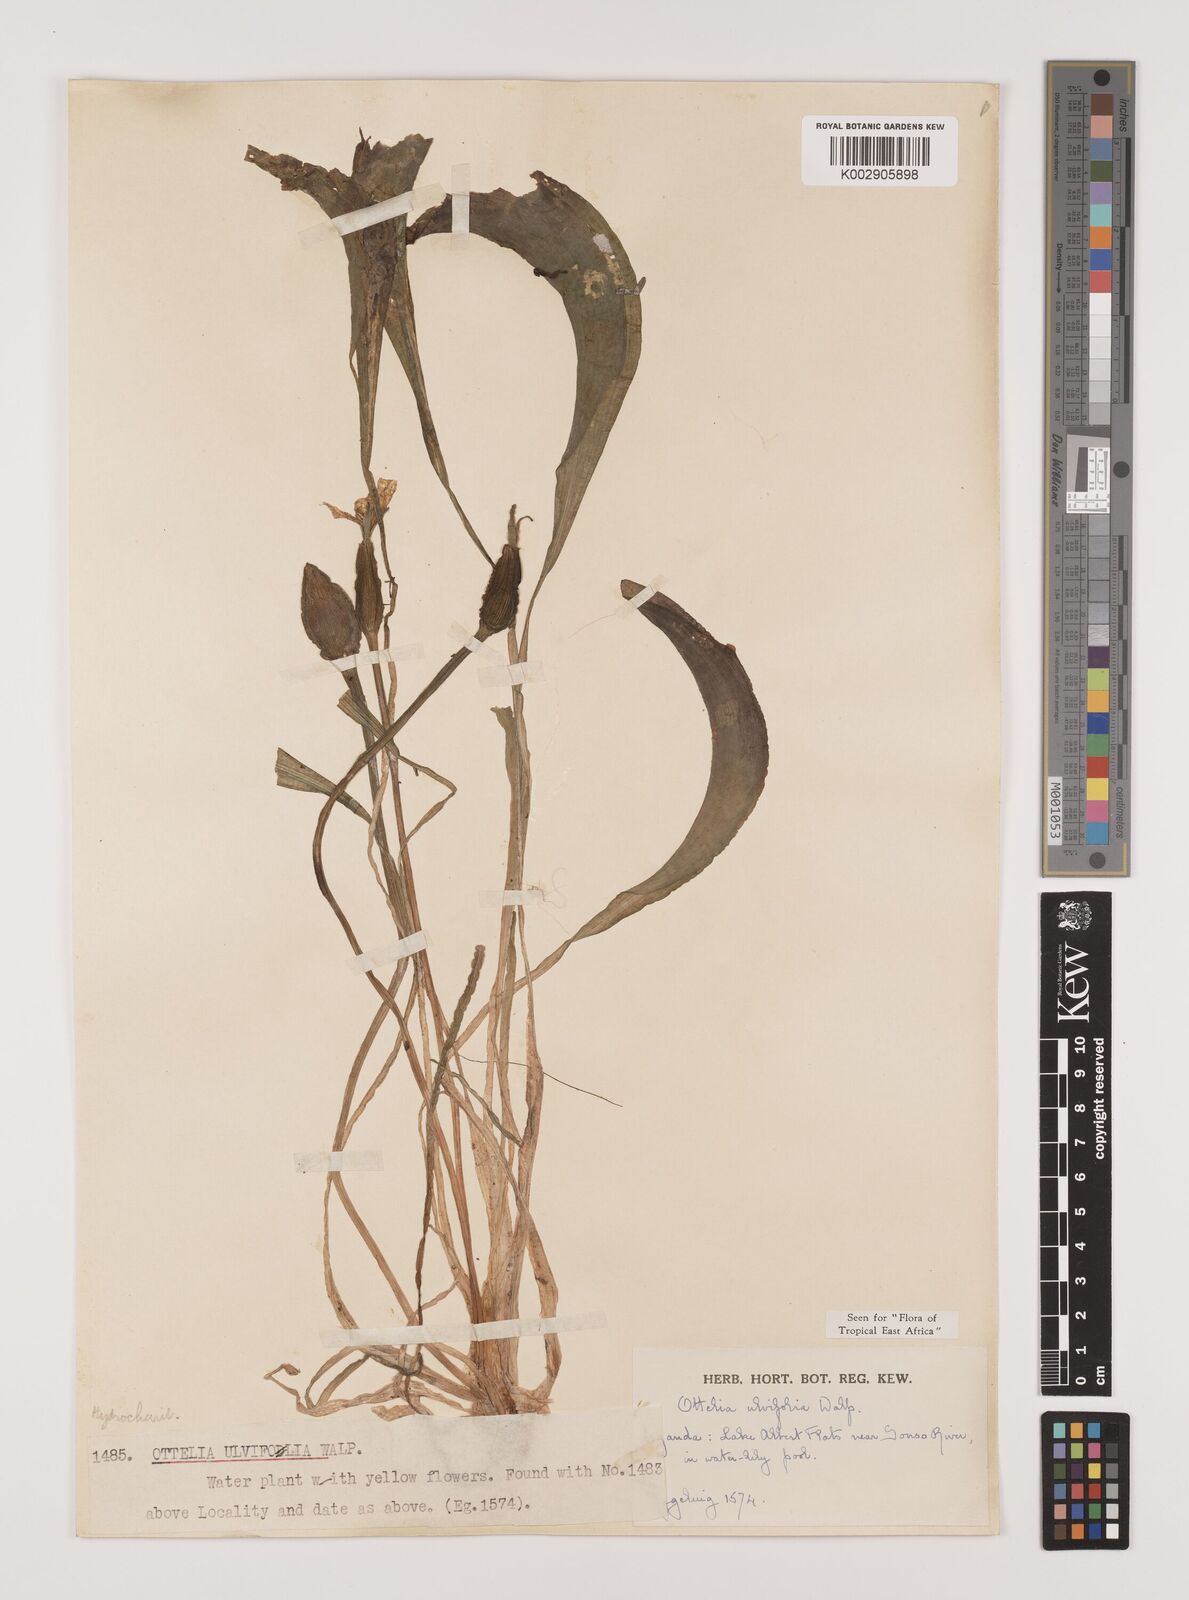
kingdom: Plantae
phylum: Tracheophyta
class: Liliopsida
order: Alismatales
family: Hydrocharitaceae
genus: Ottelia
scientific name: Ottelia ulvifolia
